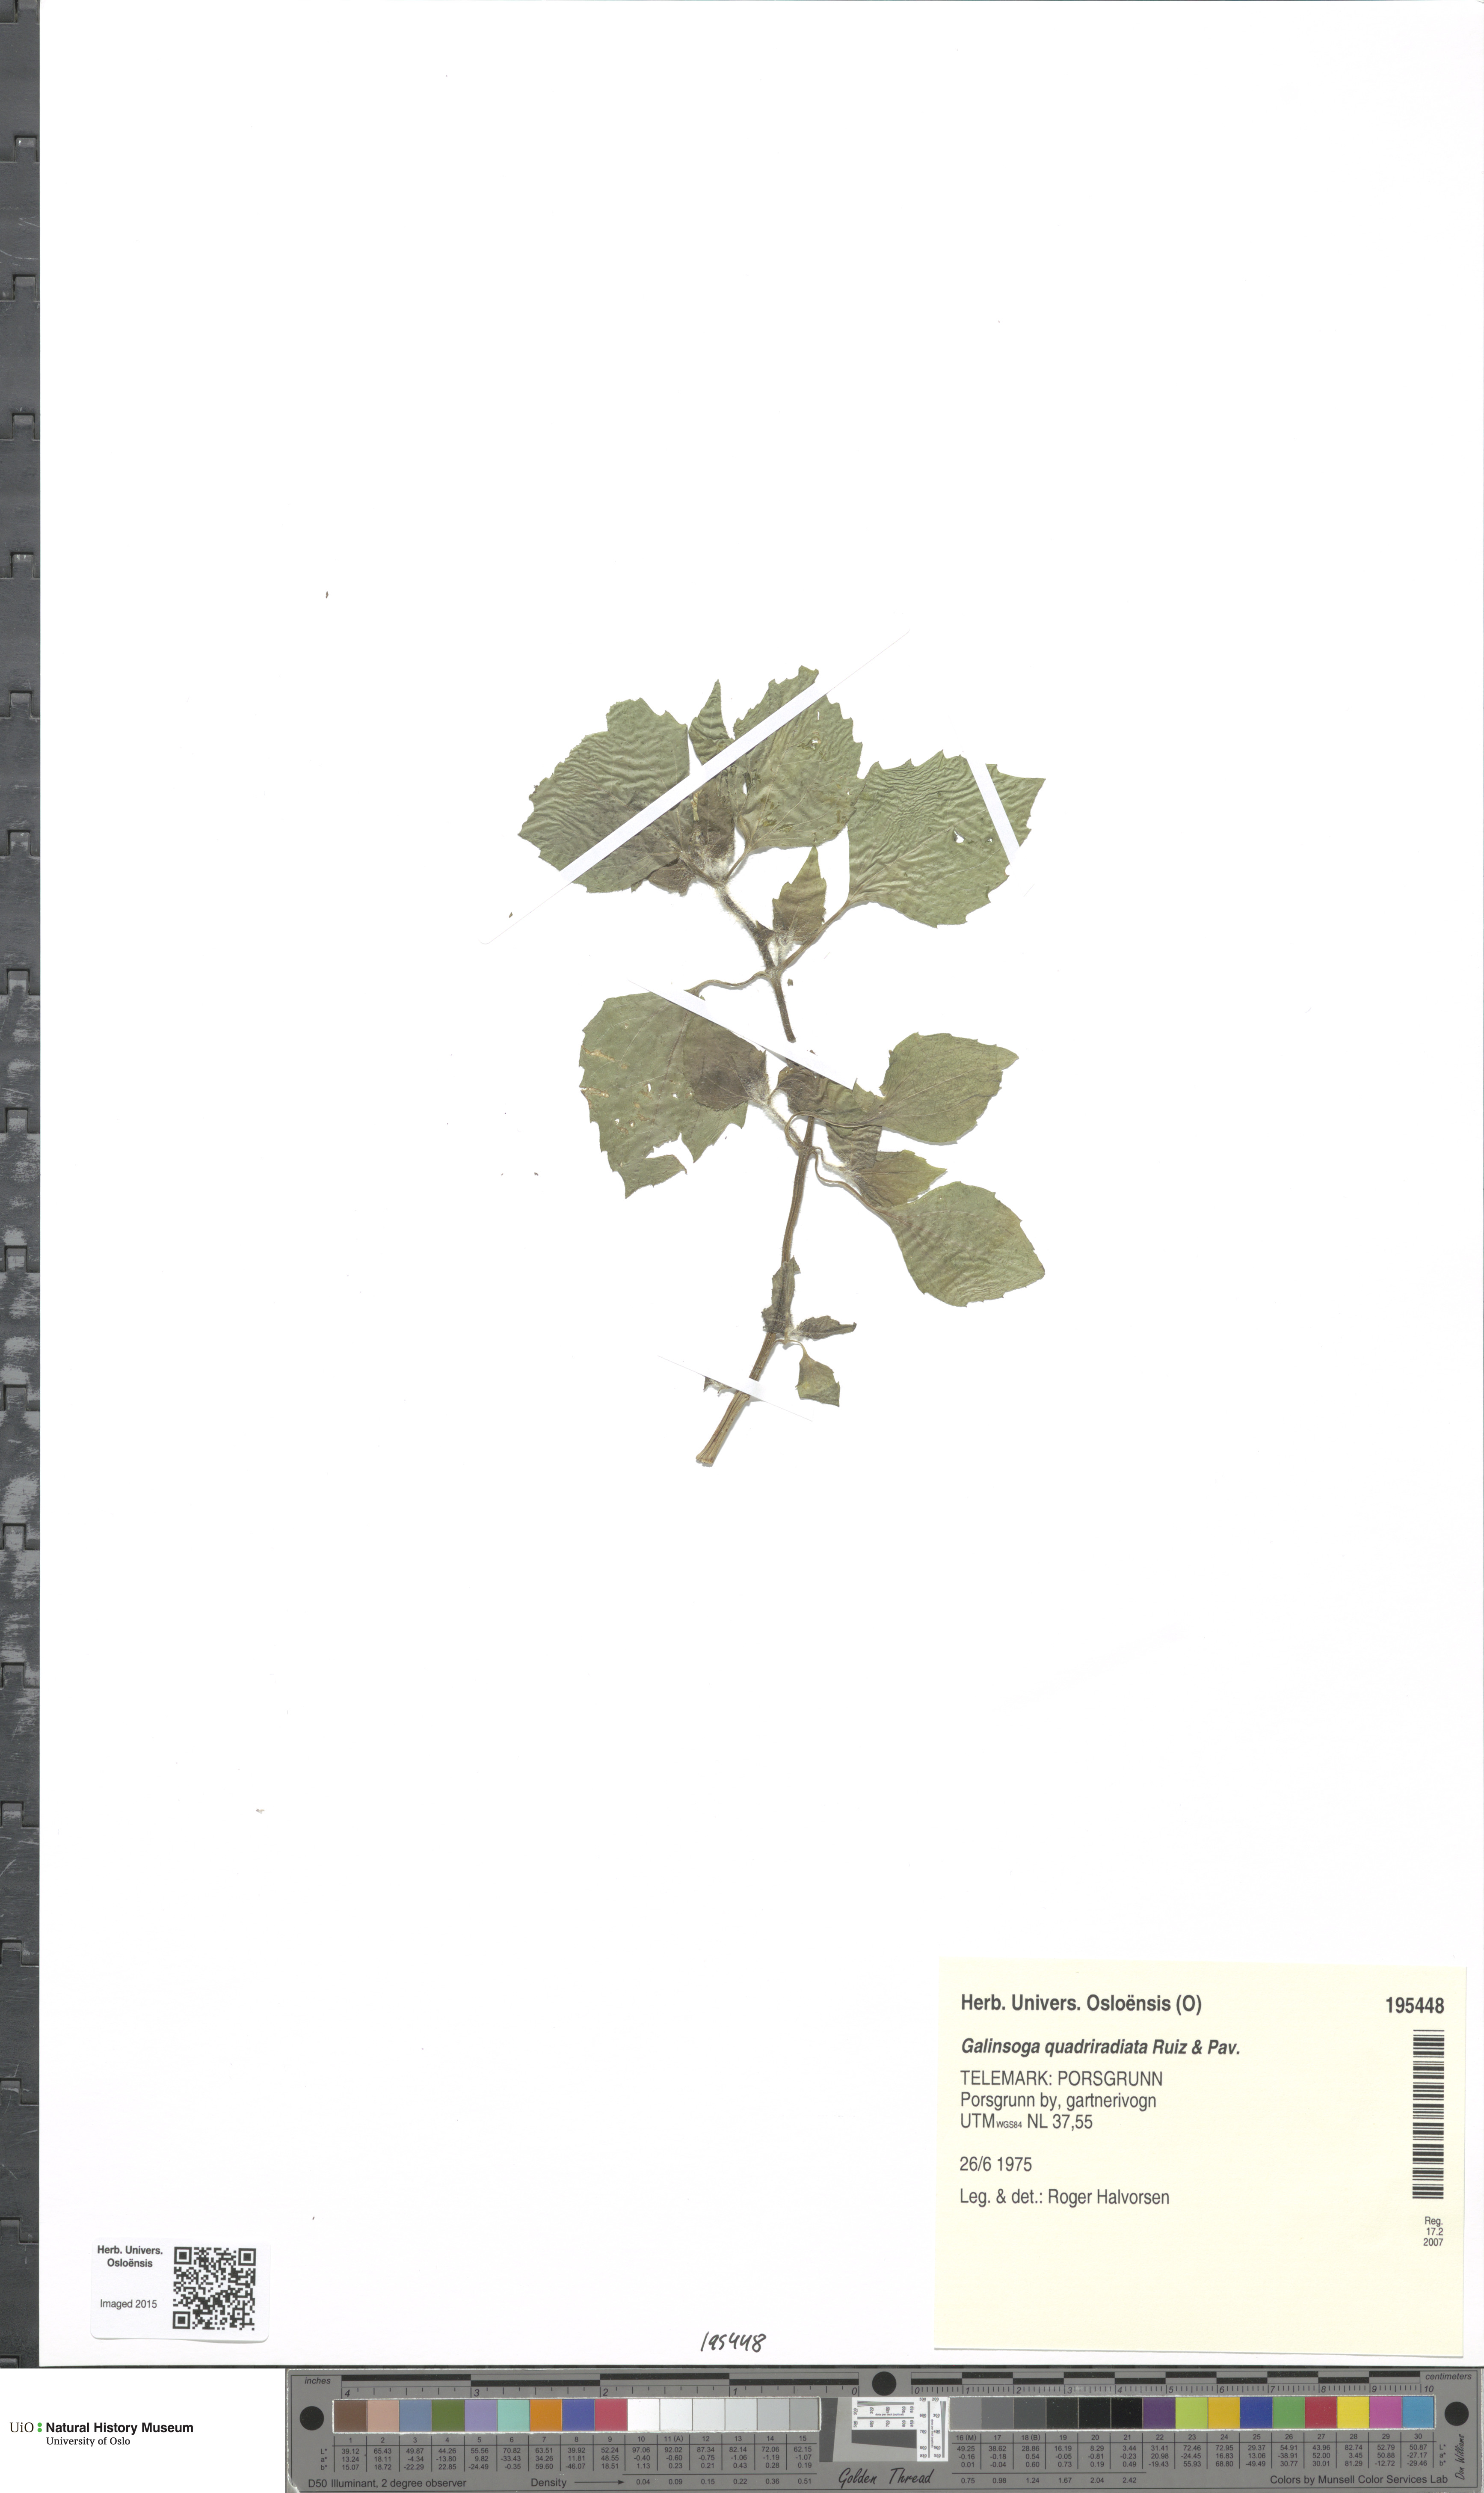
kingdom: Plantae
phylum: Tracheophyta
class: Magnoliopsida
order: Asterales
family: Asteraceae
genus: Galinsoga
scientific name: Galinsoga quadriradiata
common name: Shaggy soldier
